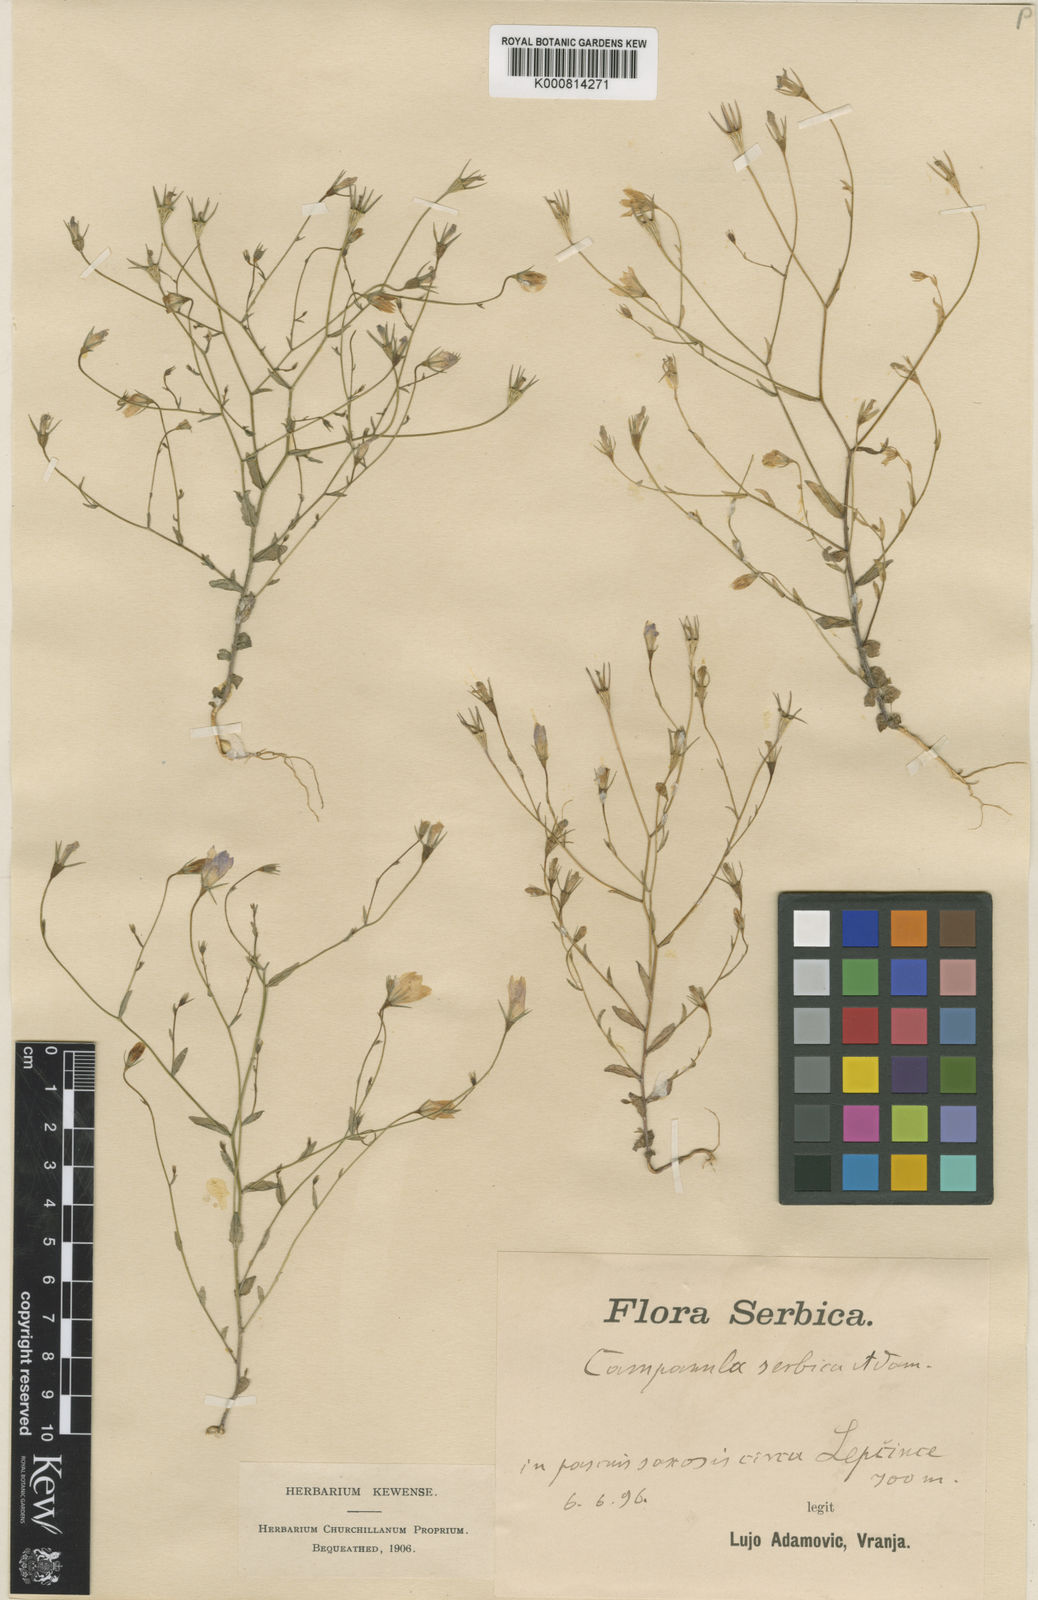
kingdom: Plantae
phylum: Tracheophyta
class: Magnoliopsida
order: Asterales
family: Campanulaceae
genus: Campanula
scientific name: Campanula phrygia
